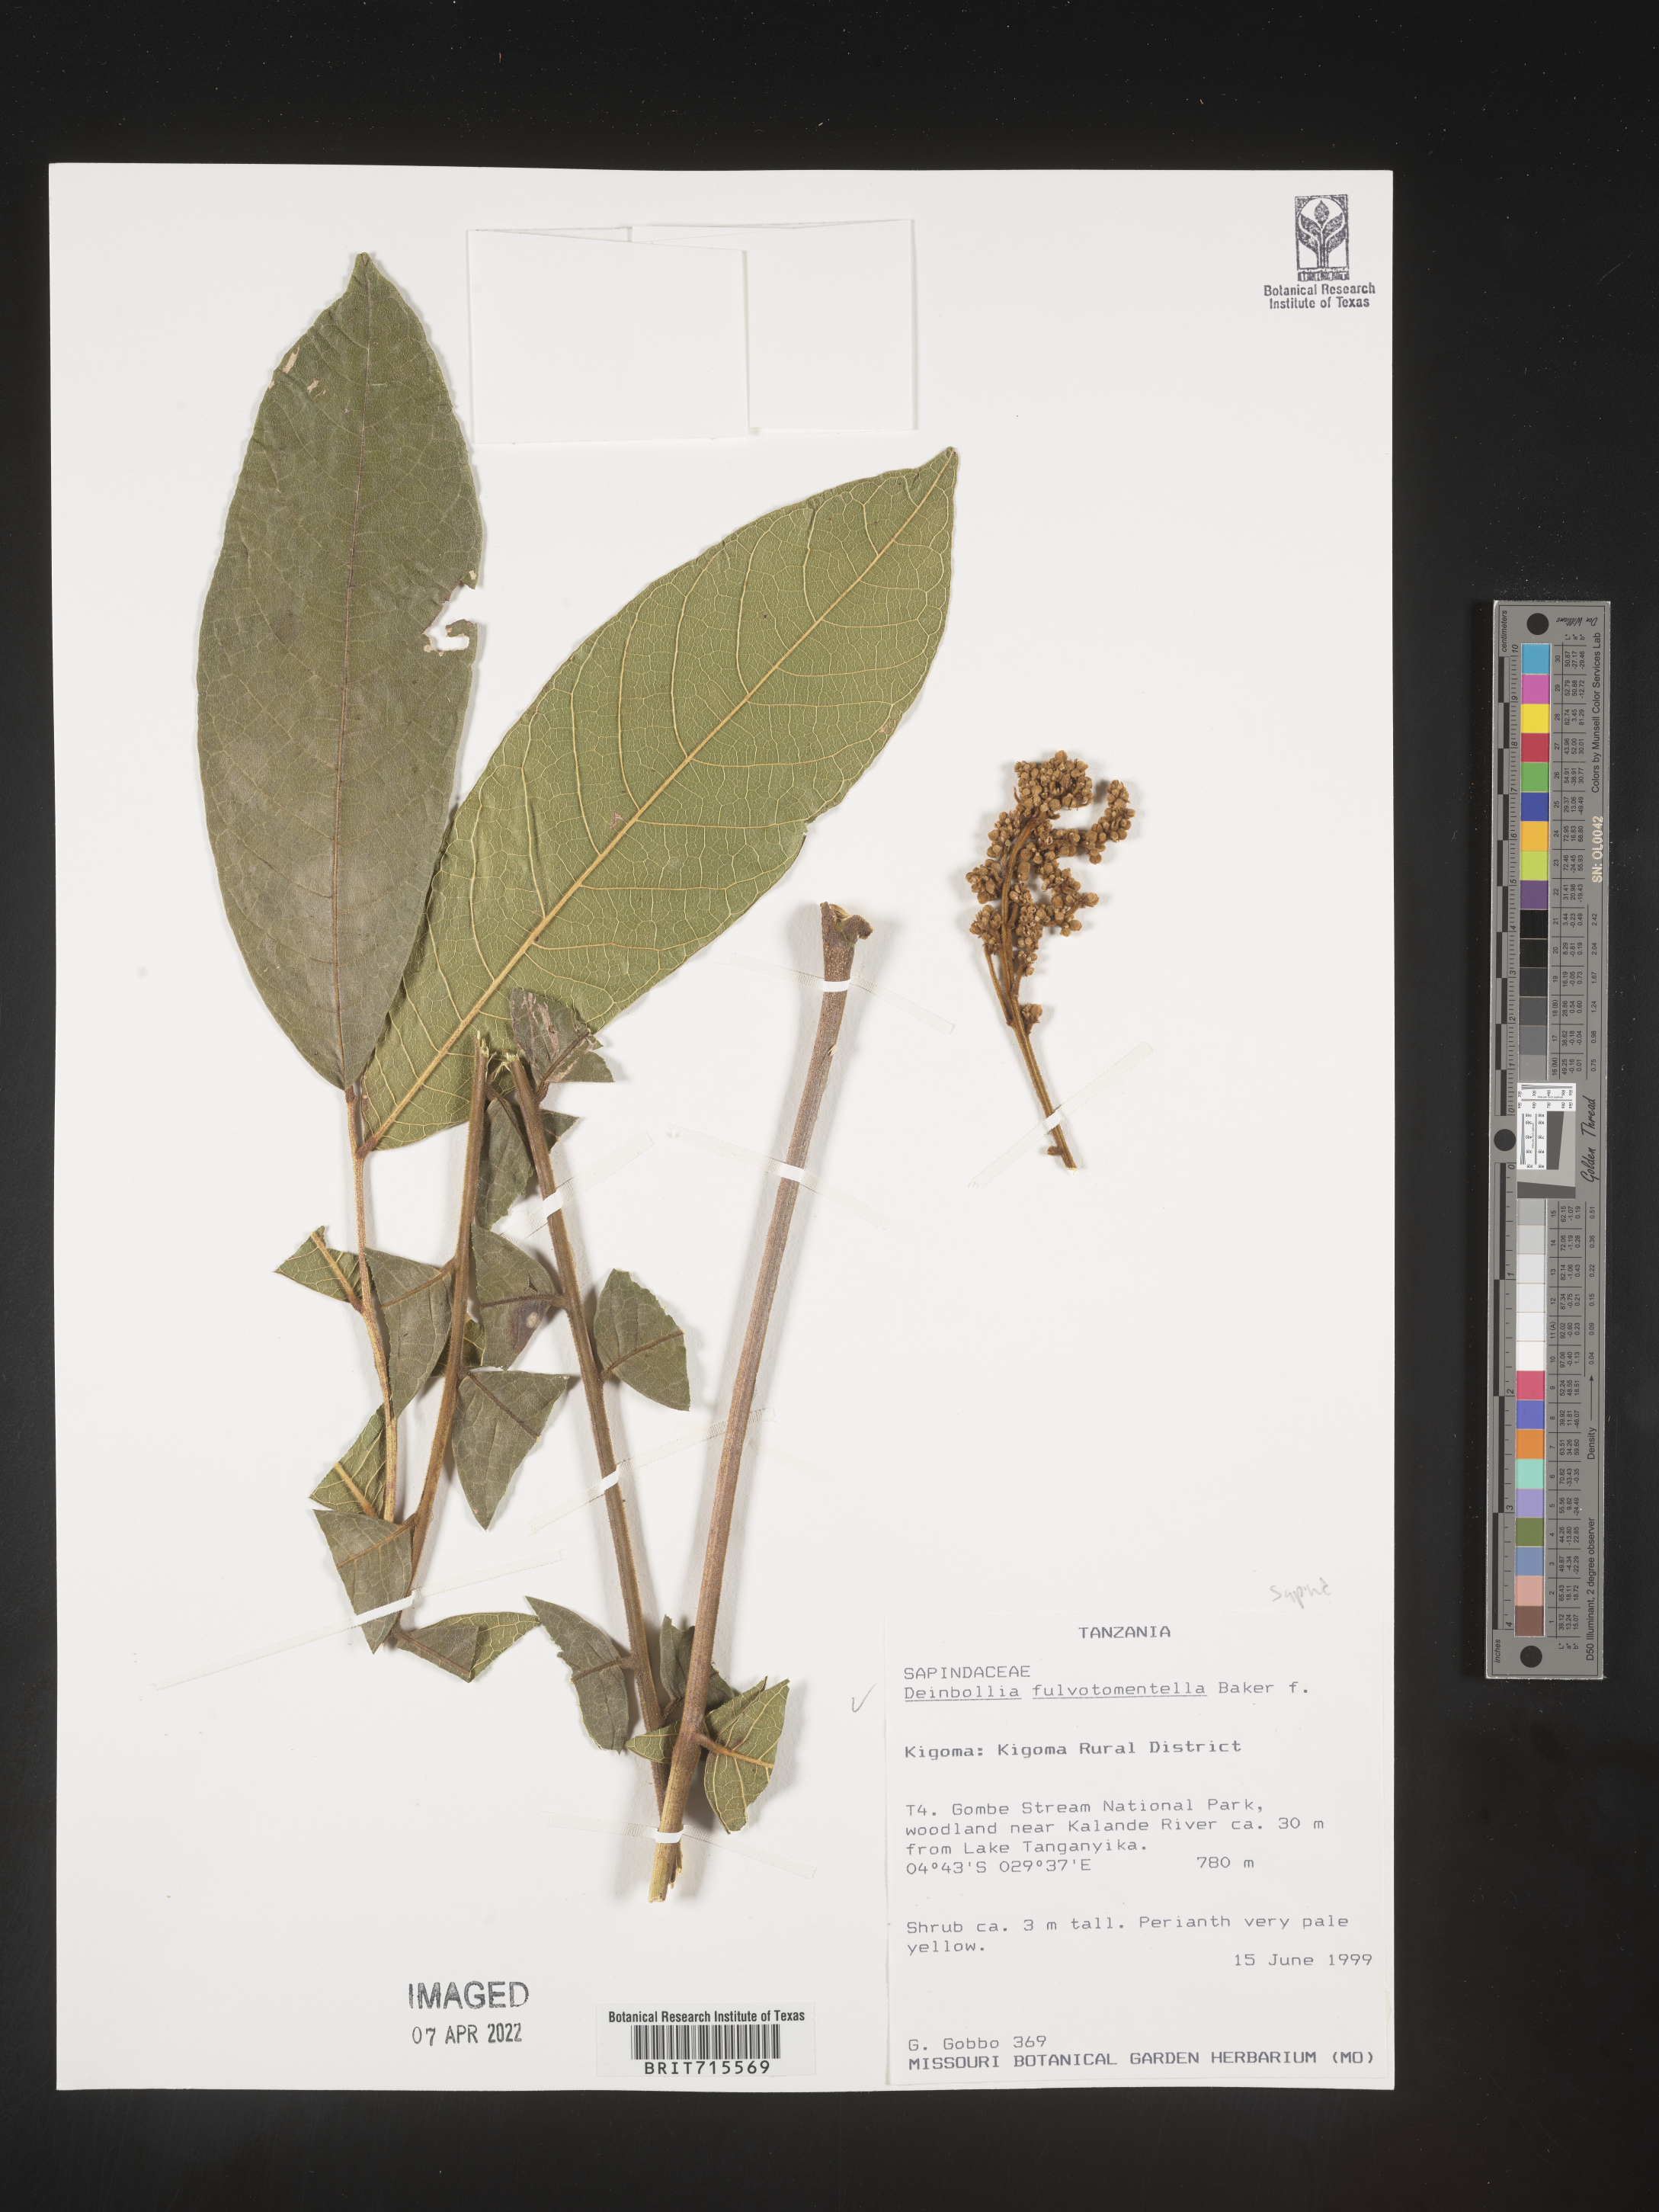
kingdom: Plantae
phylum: Tracheophyta
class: Magnoliopsida
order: Sapindales
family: Sapindaceae
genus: Deinbollia
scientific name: Deinbollia
